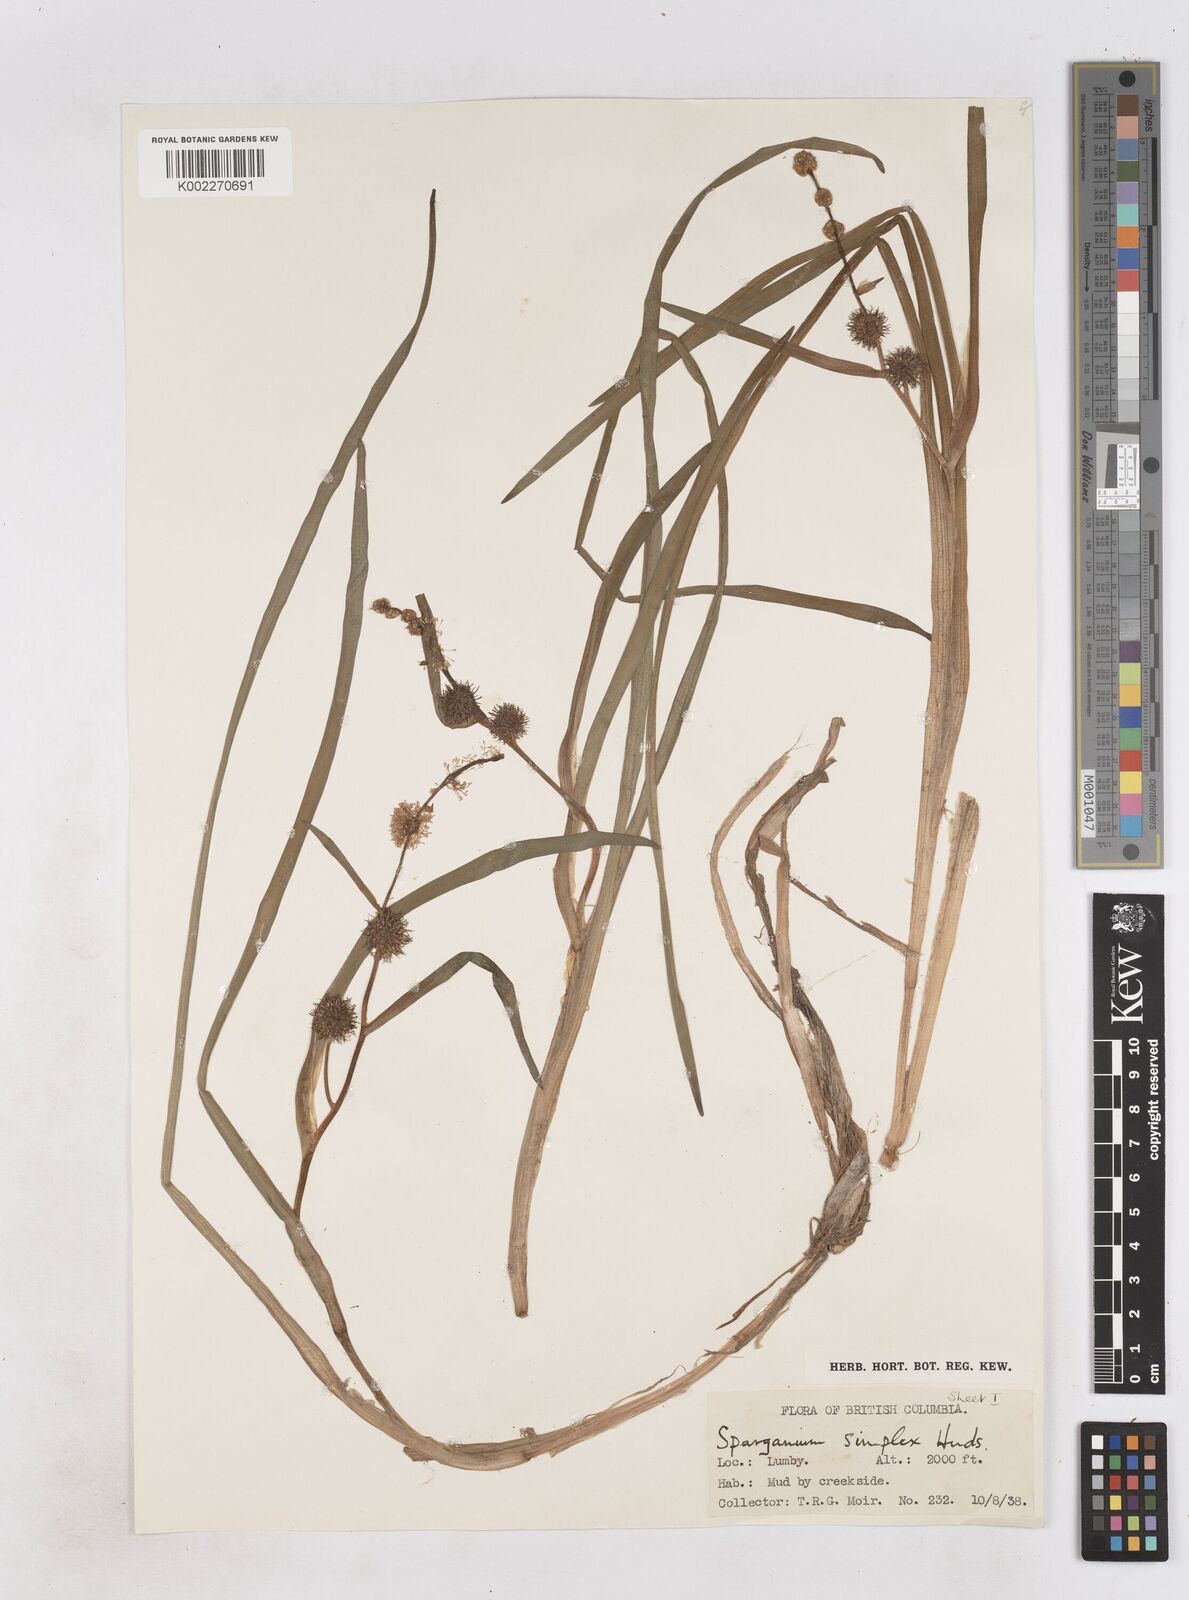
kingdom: Plantae
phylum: Tracheophyta
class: Liliopsida
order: Poales
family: Typhaceae
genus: Sparganium
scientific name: Sparganium emersum
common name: Unbranched bur-reed
